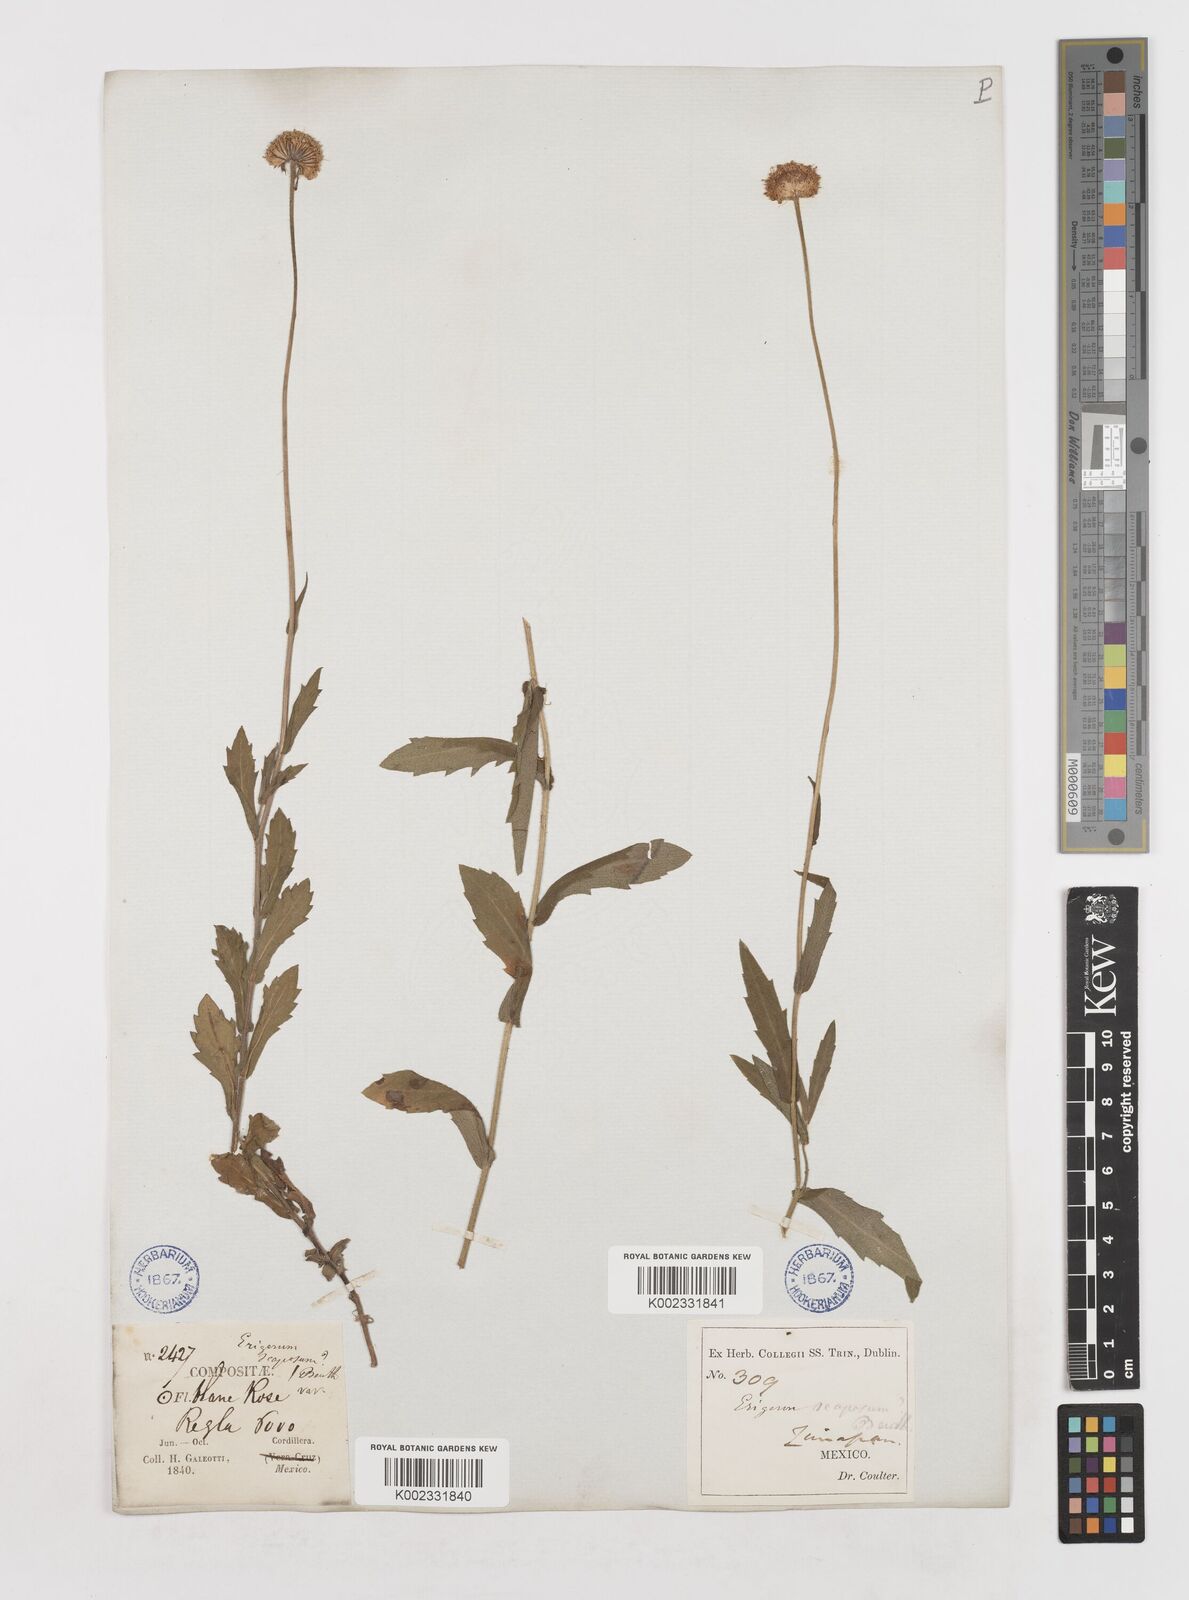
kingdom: Plantae
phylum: Tracheophyta
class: Magnoliopsida
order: Asterales
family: Asteraceae
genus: Erigeron
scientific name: Erigeron longipes
